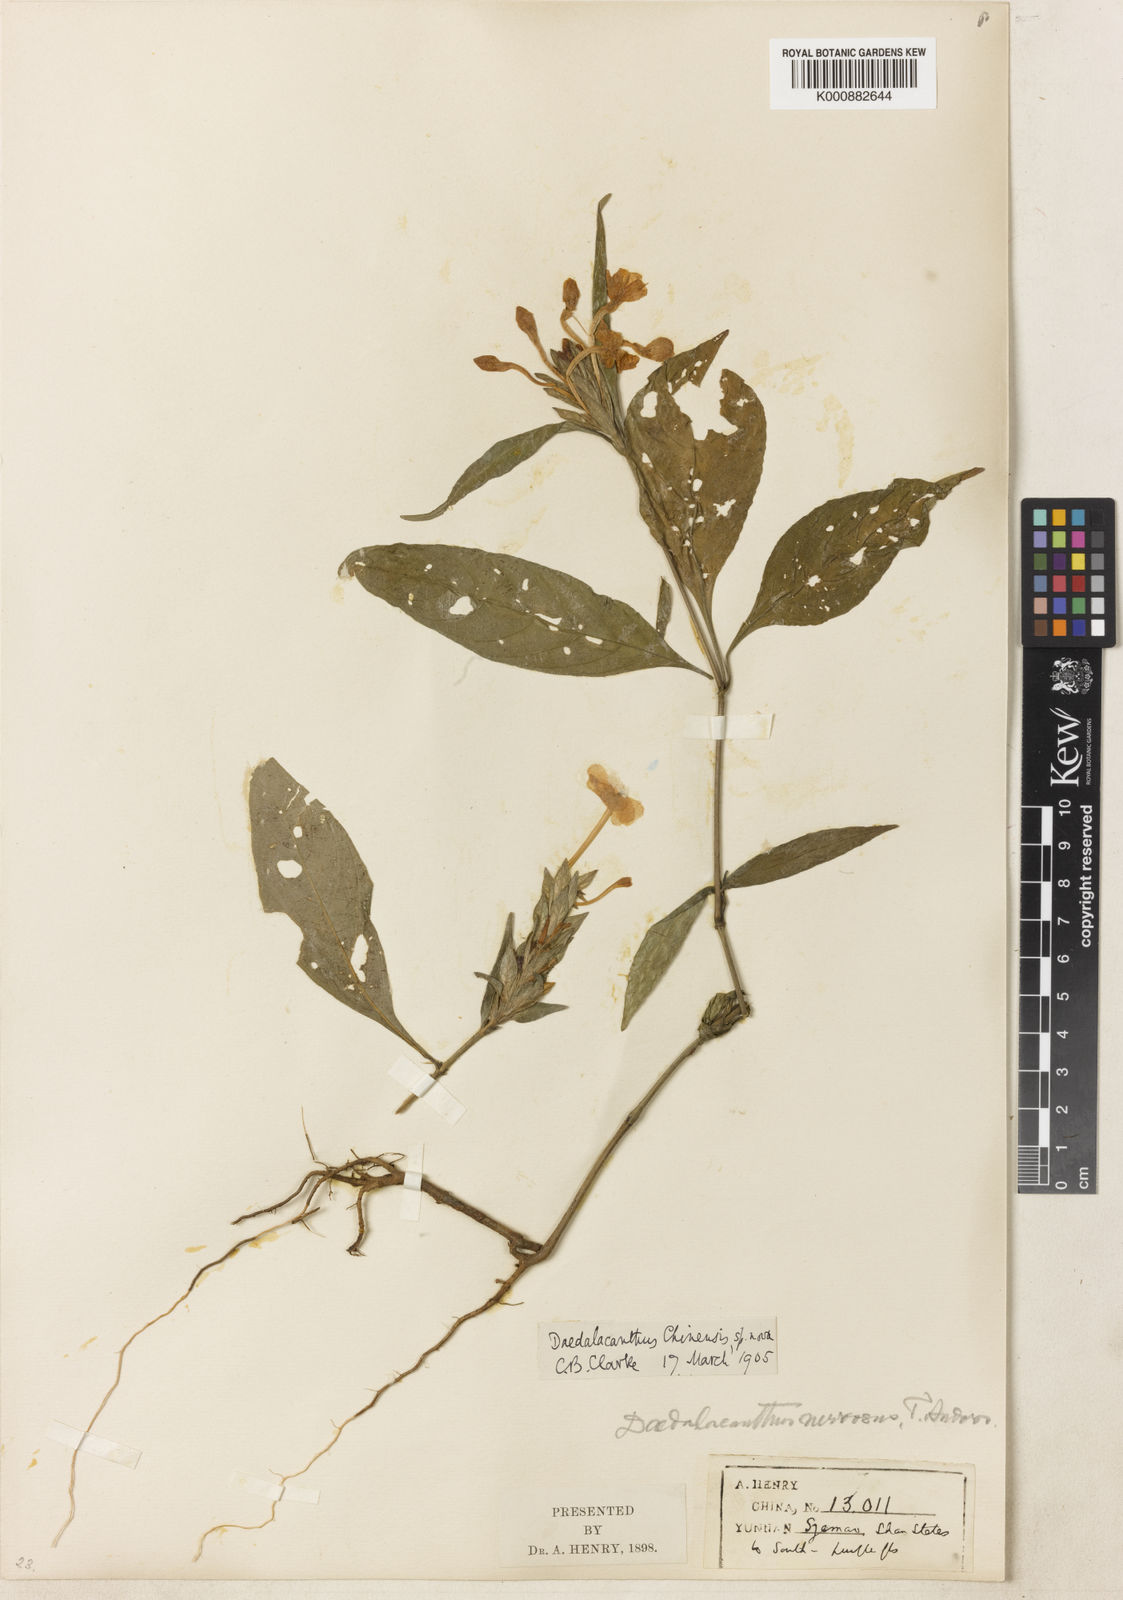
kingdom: Plantae
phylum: Tracheophyta
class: Magnoliopsida
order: Lamiales
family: Acanthaceae
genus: Eranthemum
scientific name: Eranthemum ciliatum
